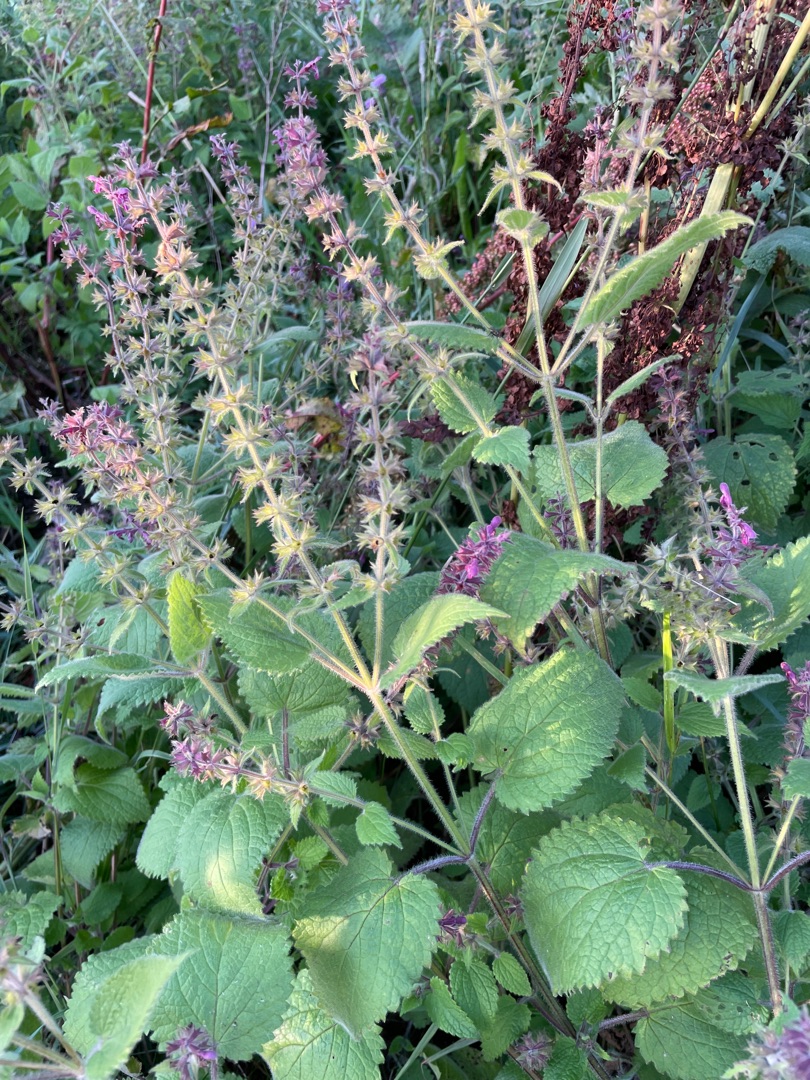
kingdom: Plantae
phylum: Tracheophyta
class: Magnoliopsida
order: Lamiales
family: Lamiaceae
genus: Stachys
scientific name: Stachys sylvatica
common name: Skov-galtetand
